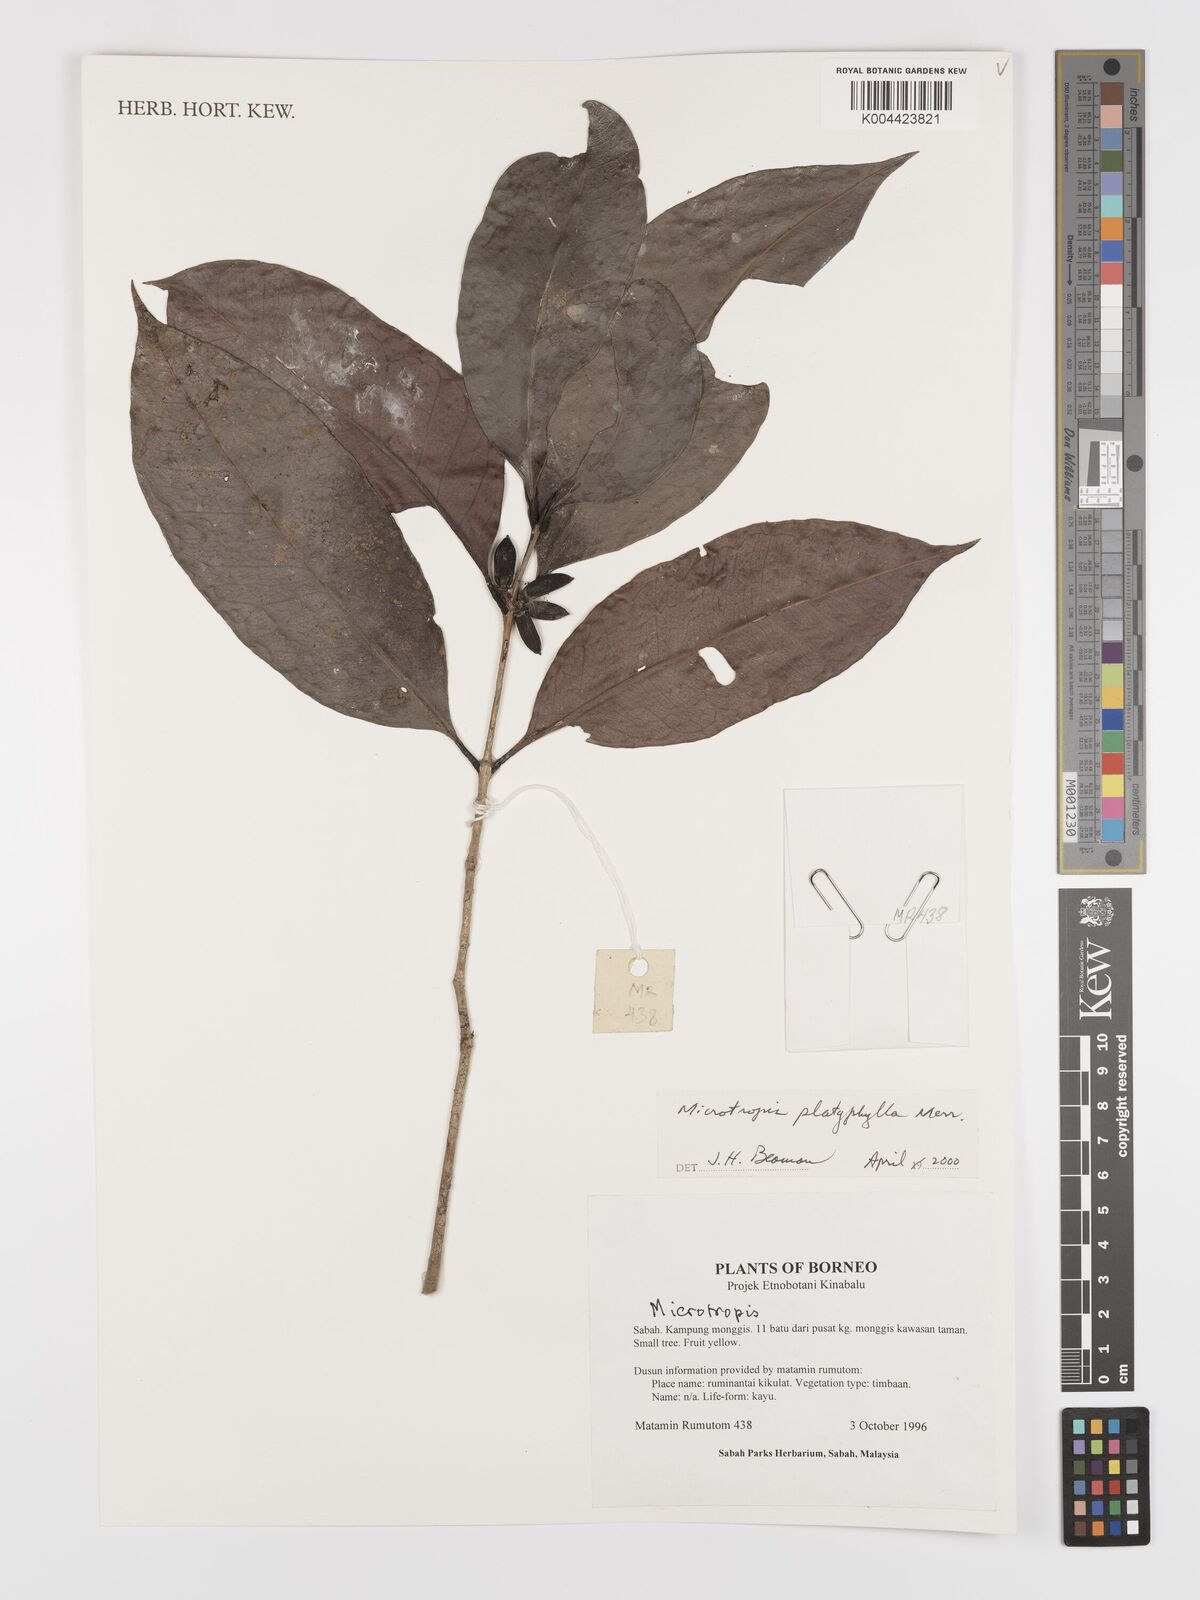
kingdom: Plantae
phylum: Tracheophyta
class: Magnoliopsida
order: Celastrales
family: Celastraceae
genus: Microtropis
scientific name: Microtropis platyphylla
